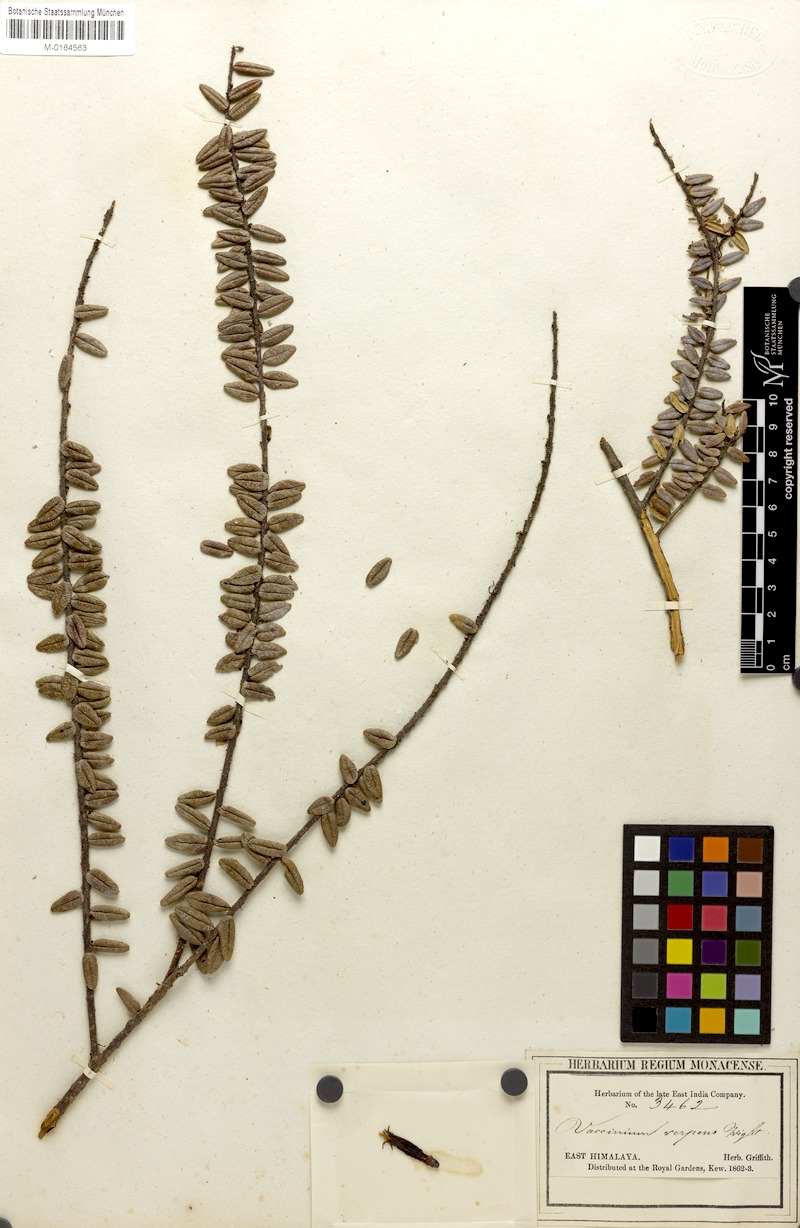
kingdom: Plantae
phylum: Tracheophyta
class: Magnoliopsida
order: Ericales
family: Ericaceae
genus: Agapetes
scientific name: Agapetes serpens
